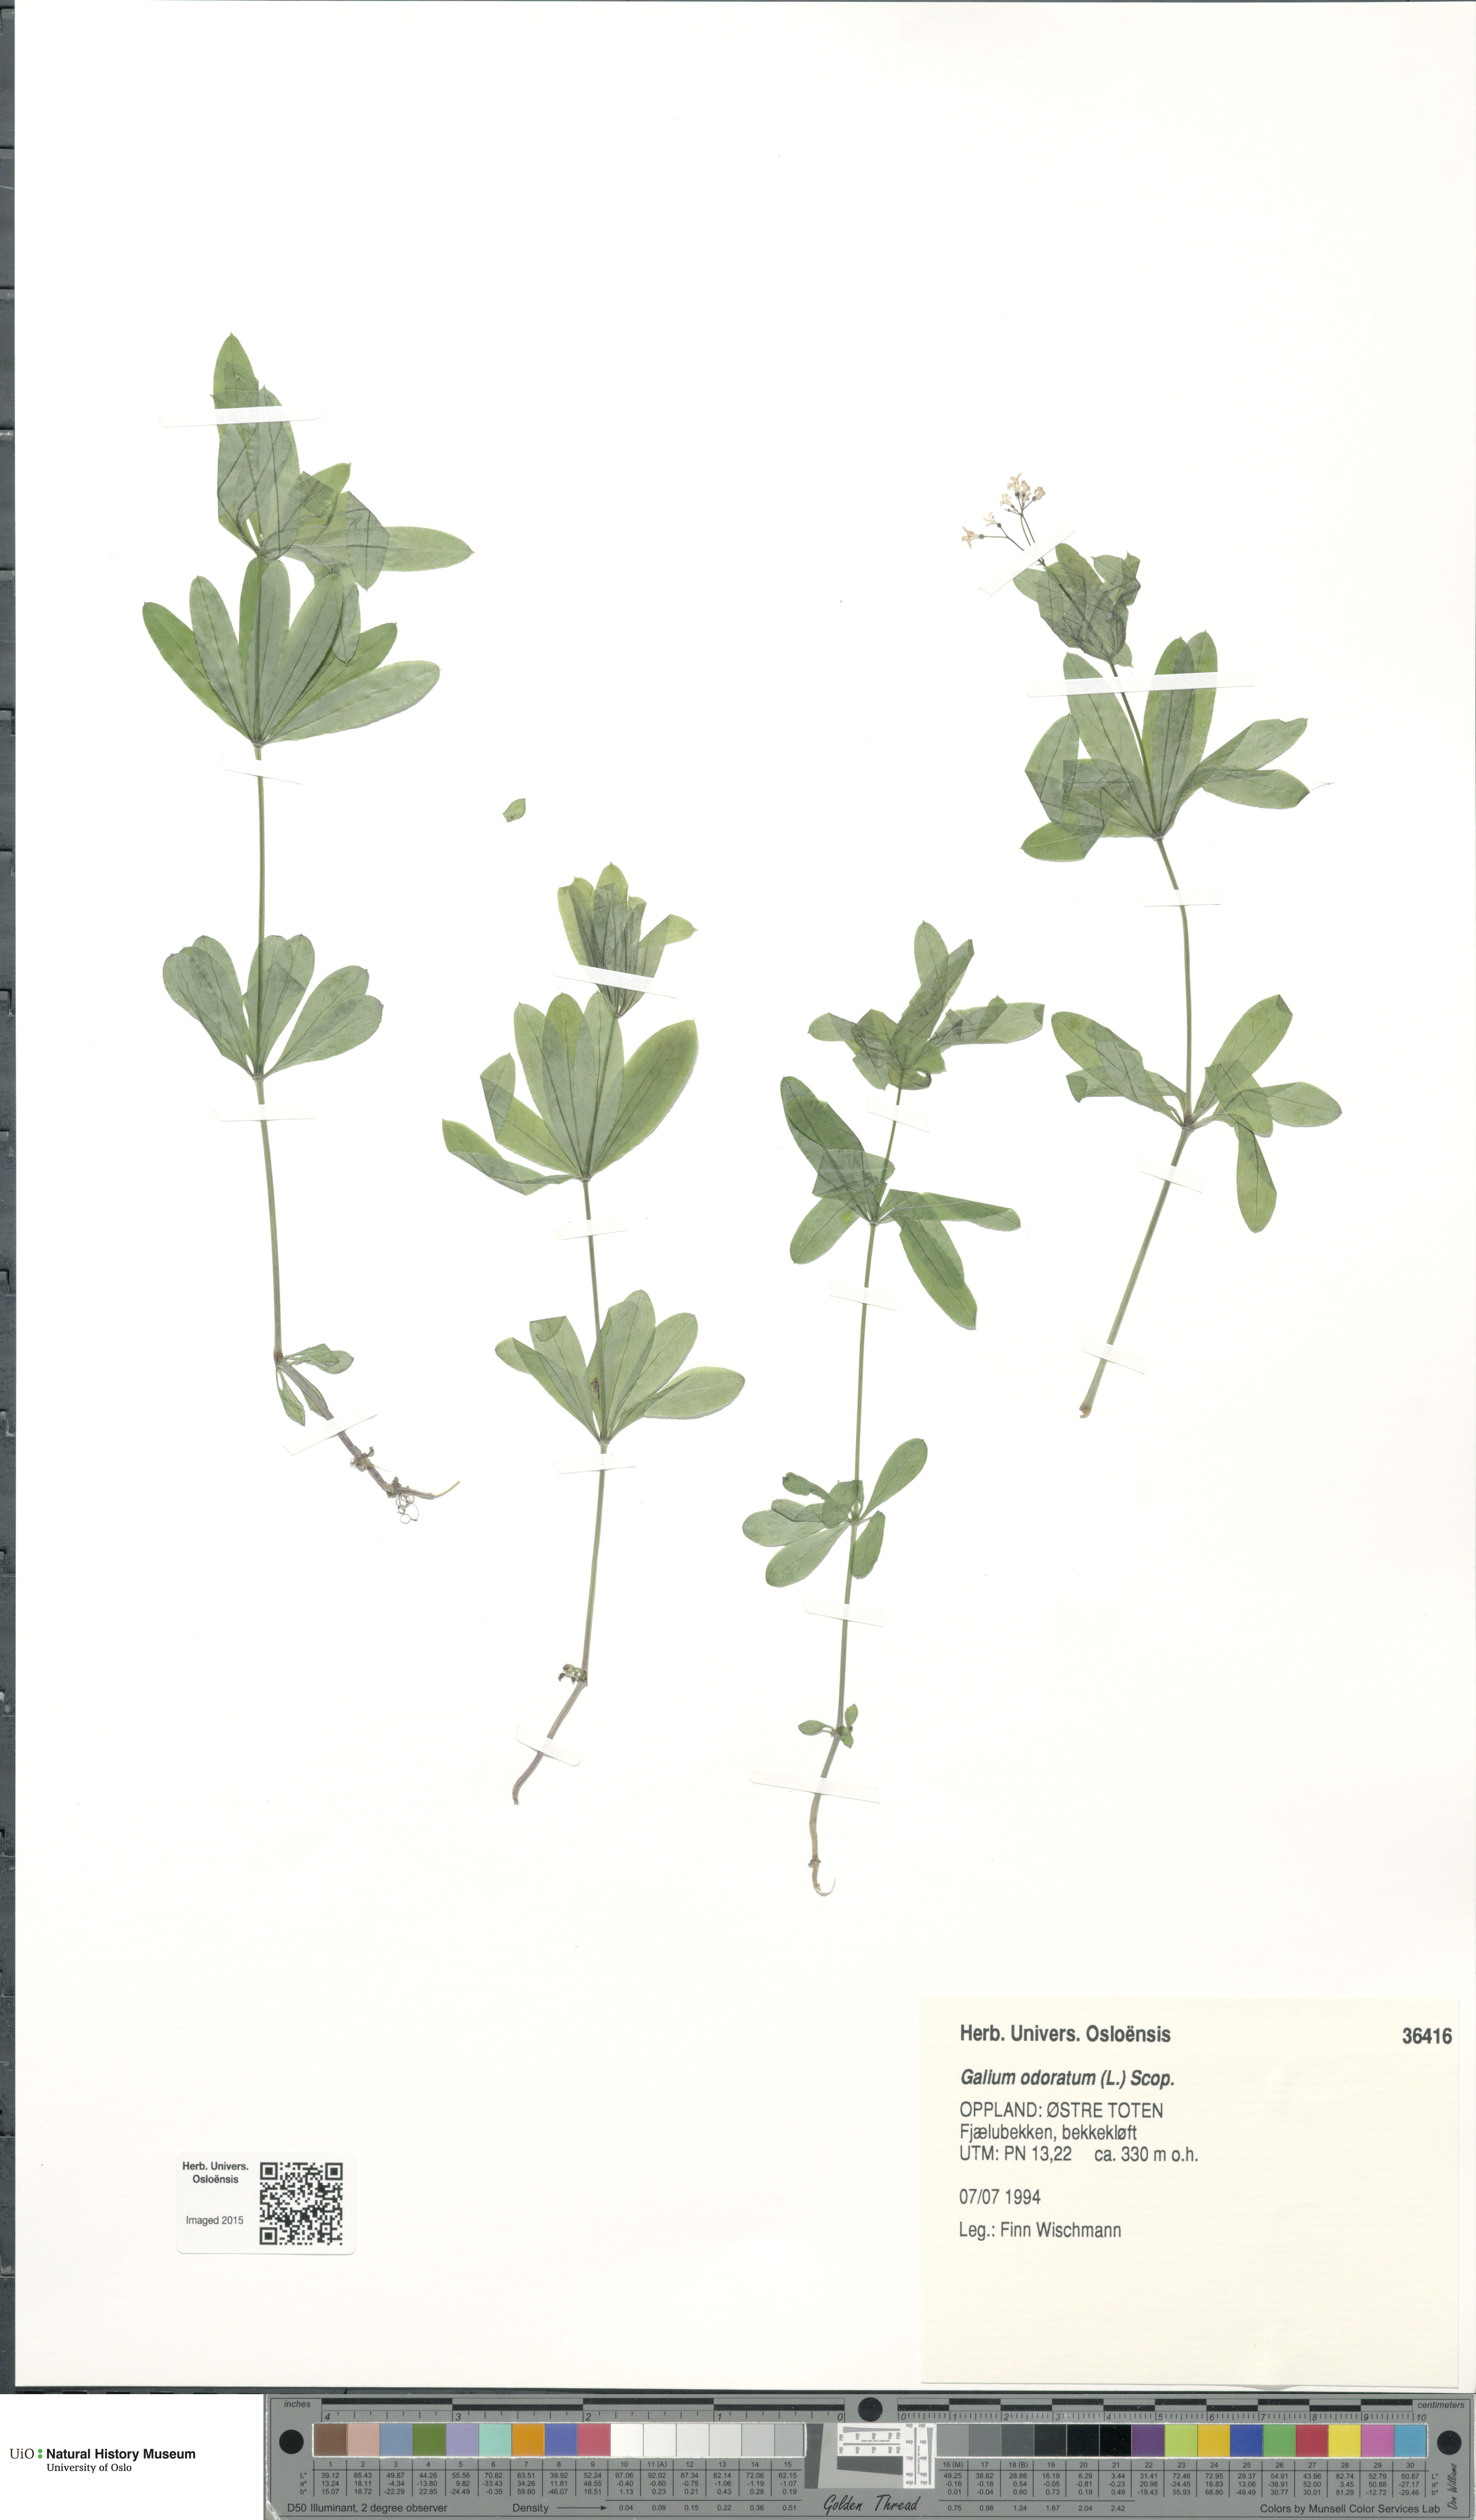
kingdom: Plantae
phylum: Tracheophyta
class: Magnoliopsida
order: Gentianales
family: Rubiaceae
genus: Galium
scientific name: Galium odoratum
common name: Sweet woodruff
